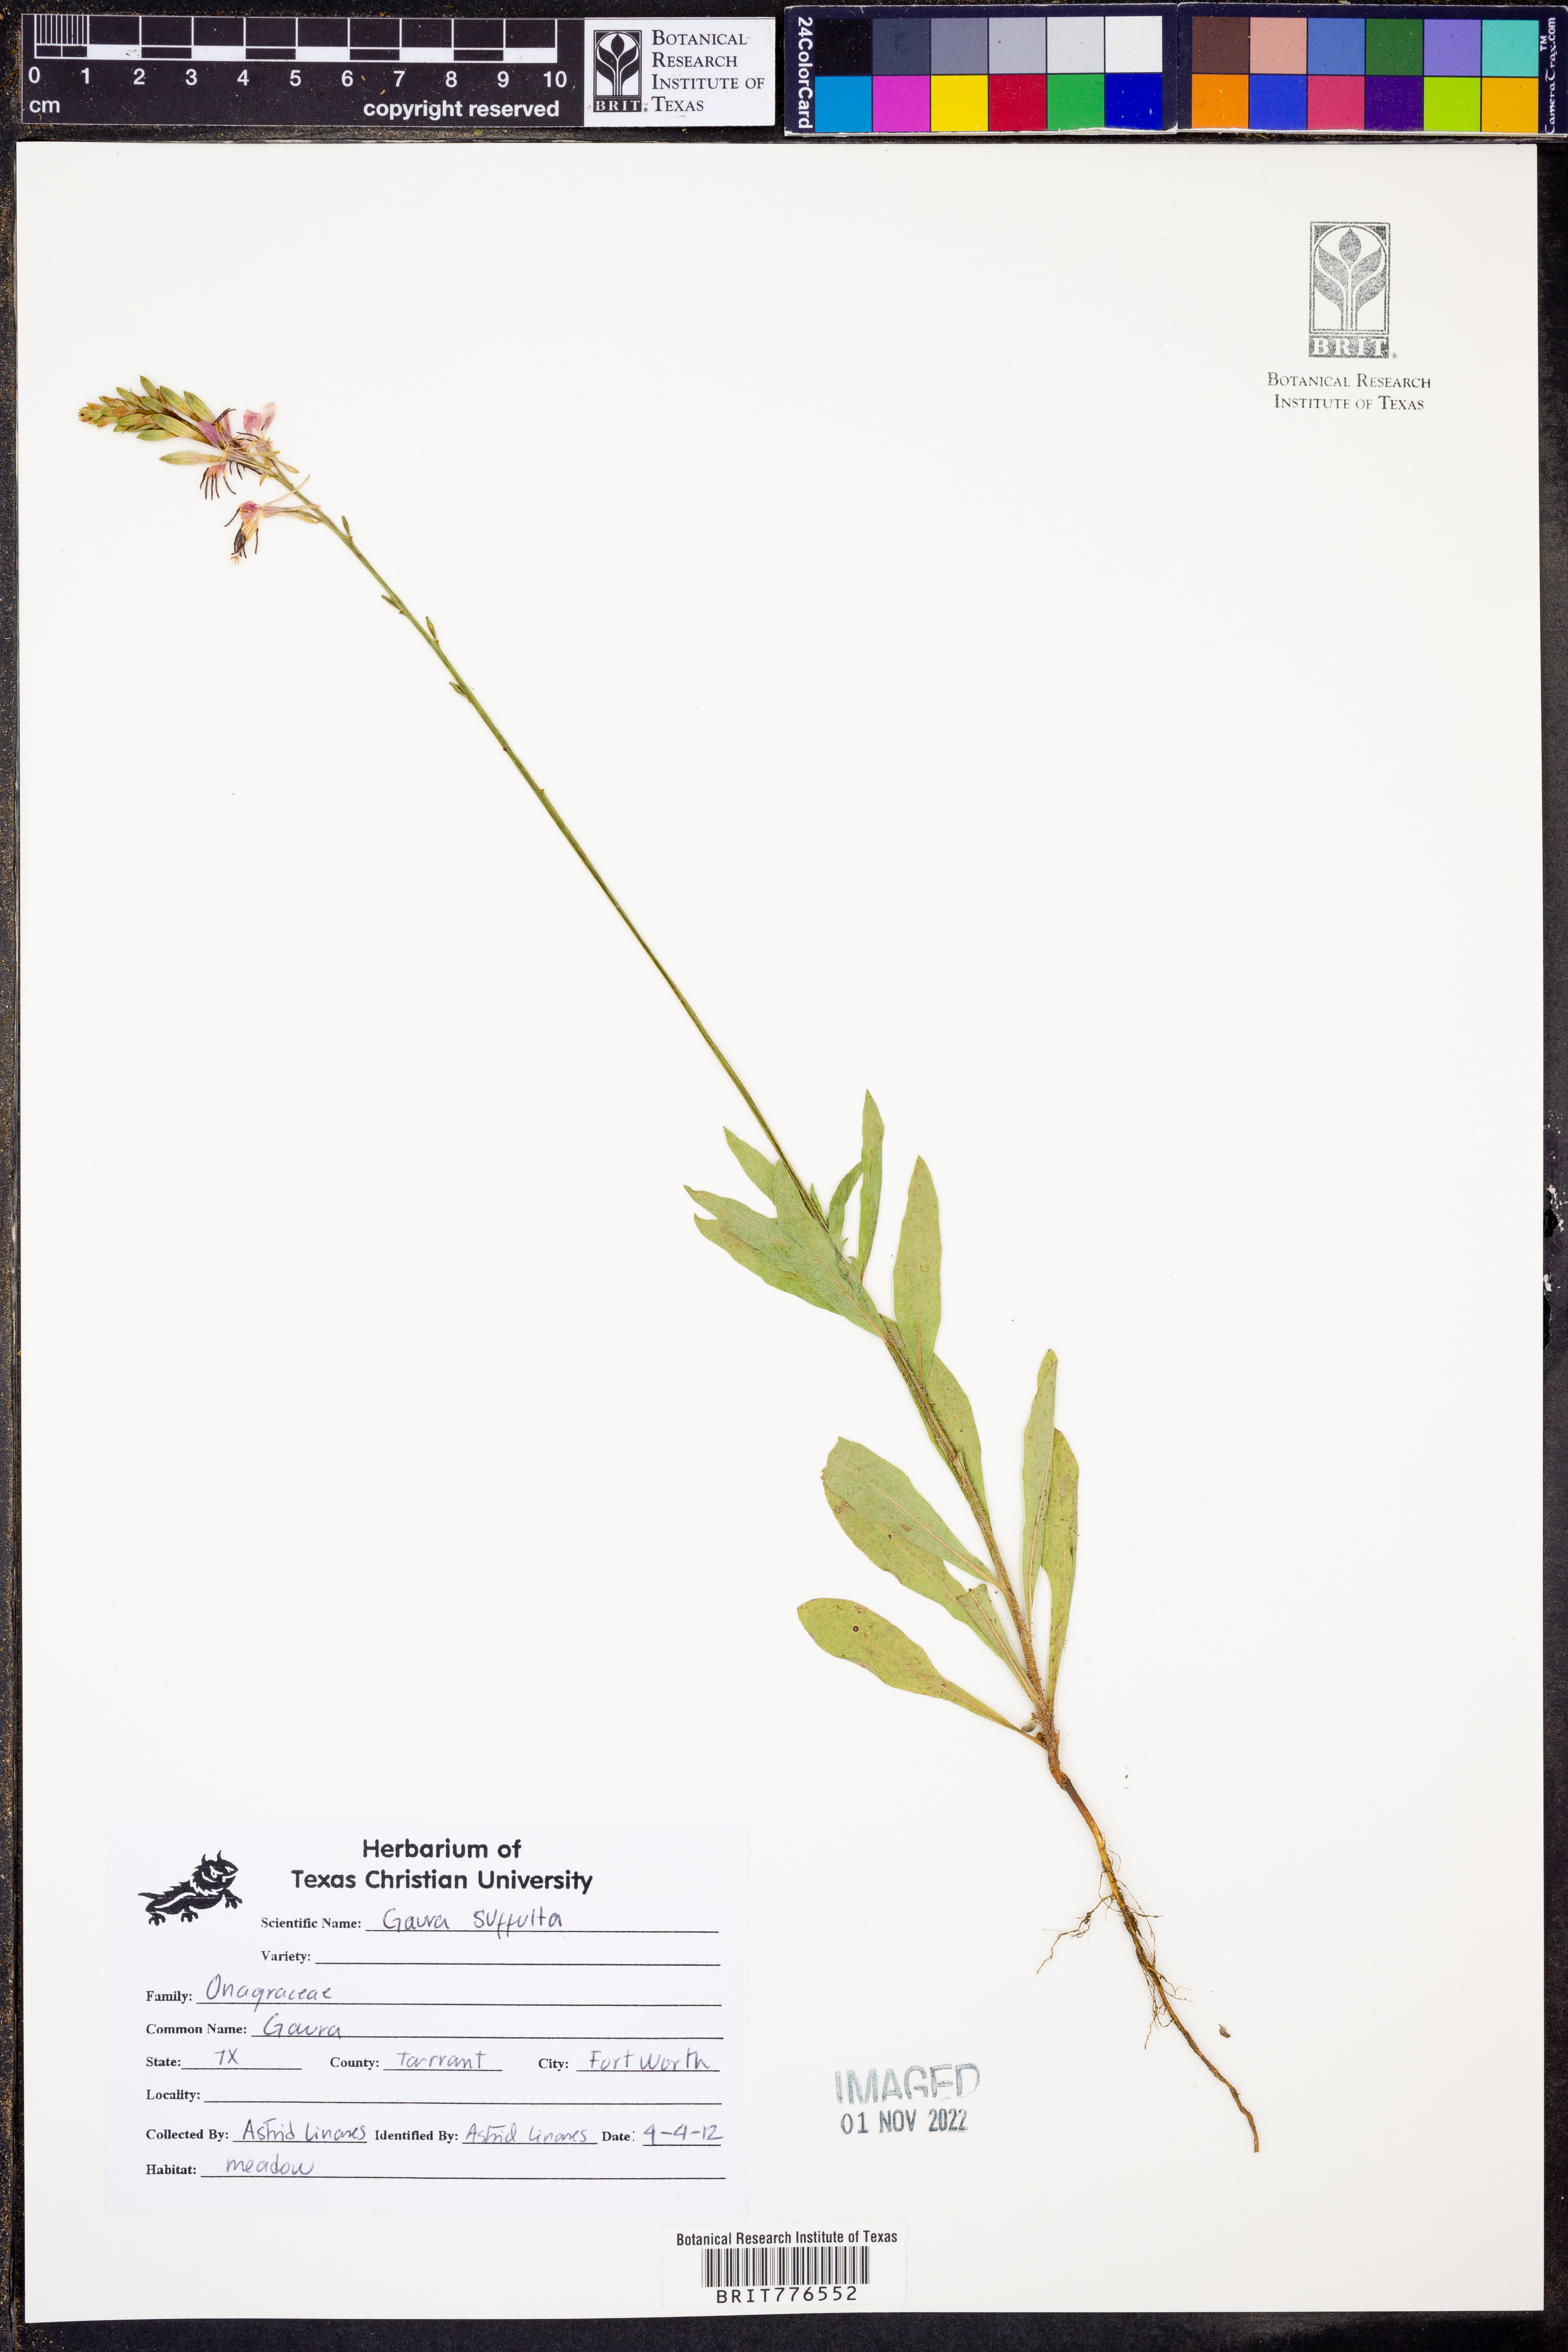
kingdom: Plantae
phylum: Tracheophyta
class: Magnoliopsida
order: Myrtales
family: Onagraceae
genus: Oenothera
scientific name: Oenothera Gaura suffulta
